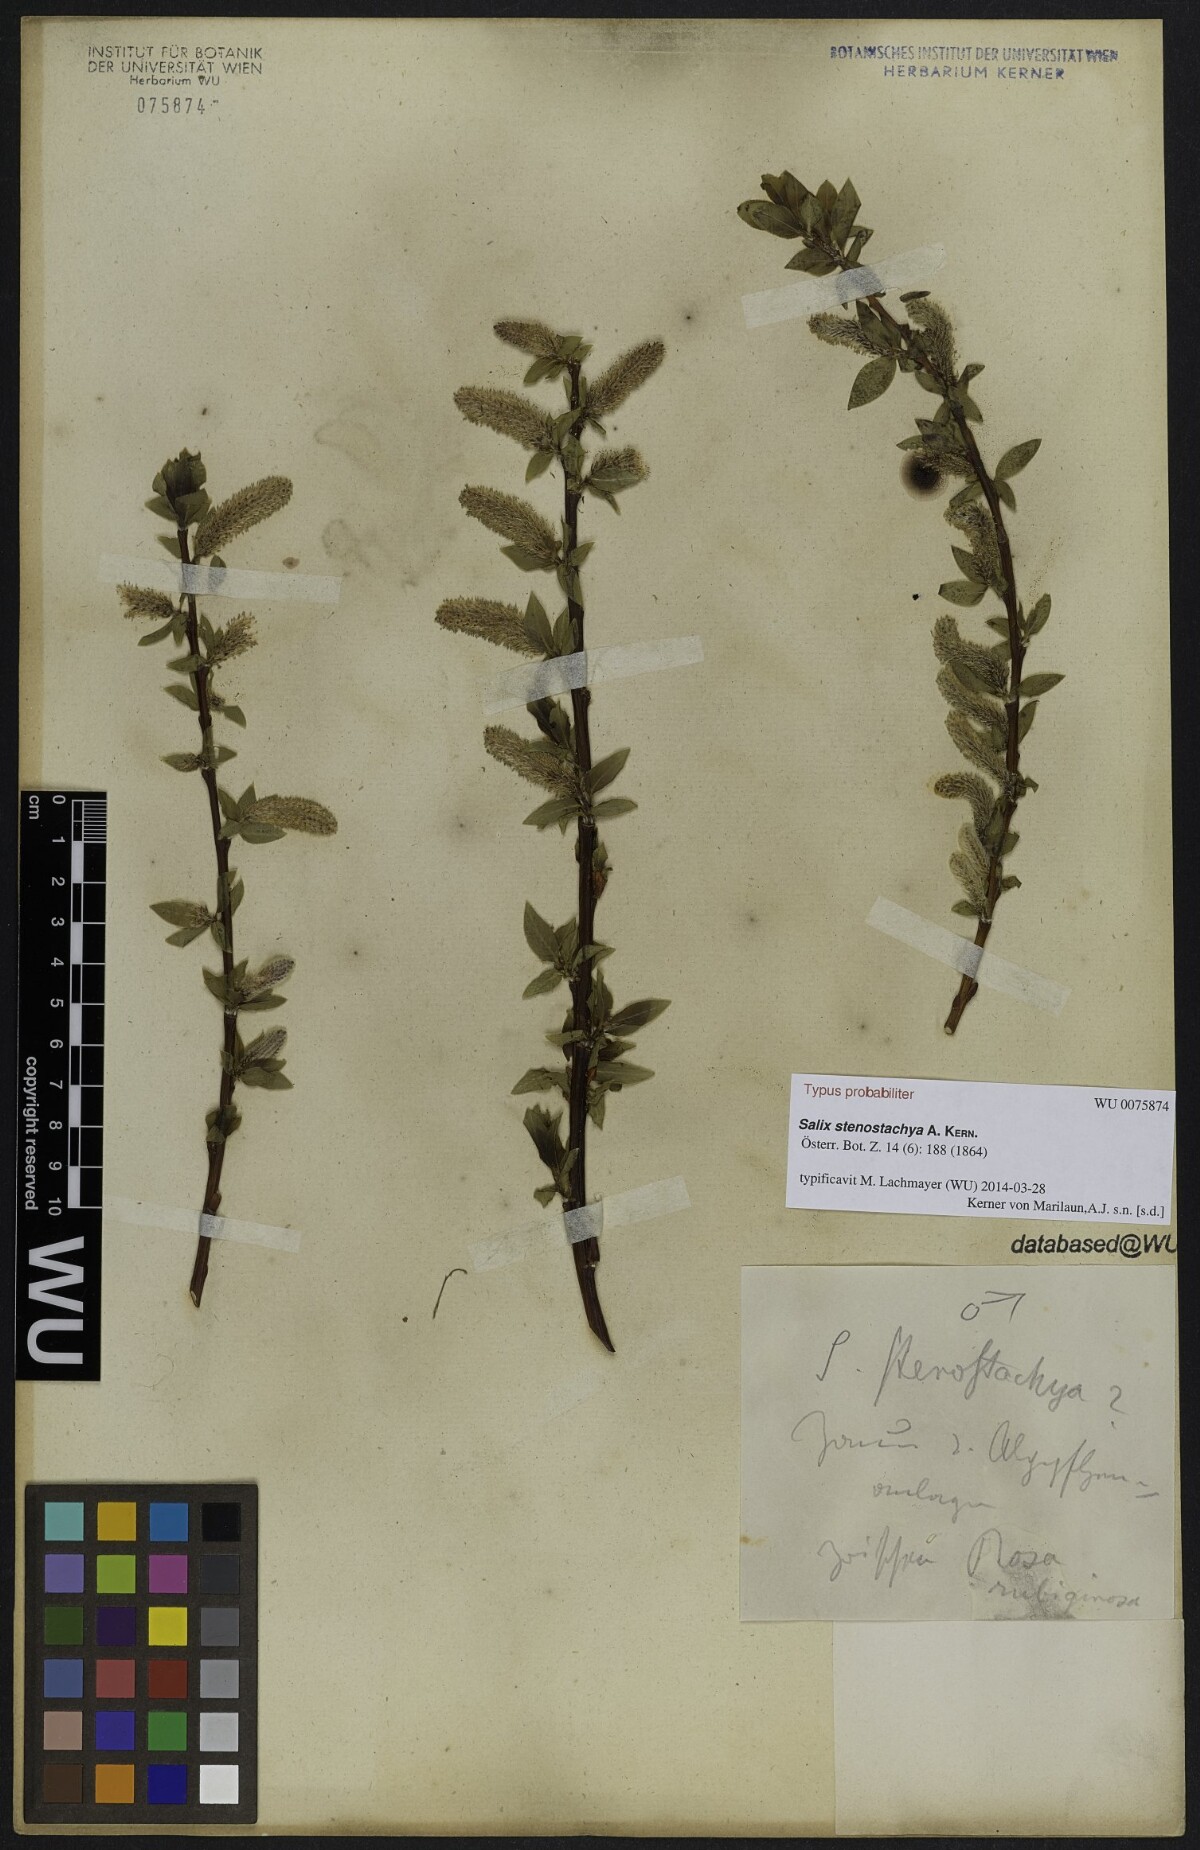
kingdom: Plantae
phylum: Tracheophyta
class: Magnoliopsida
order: Malpighiales
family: Salicaceae
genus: Salix
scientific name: Salix glabra
